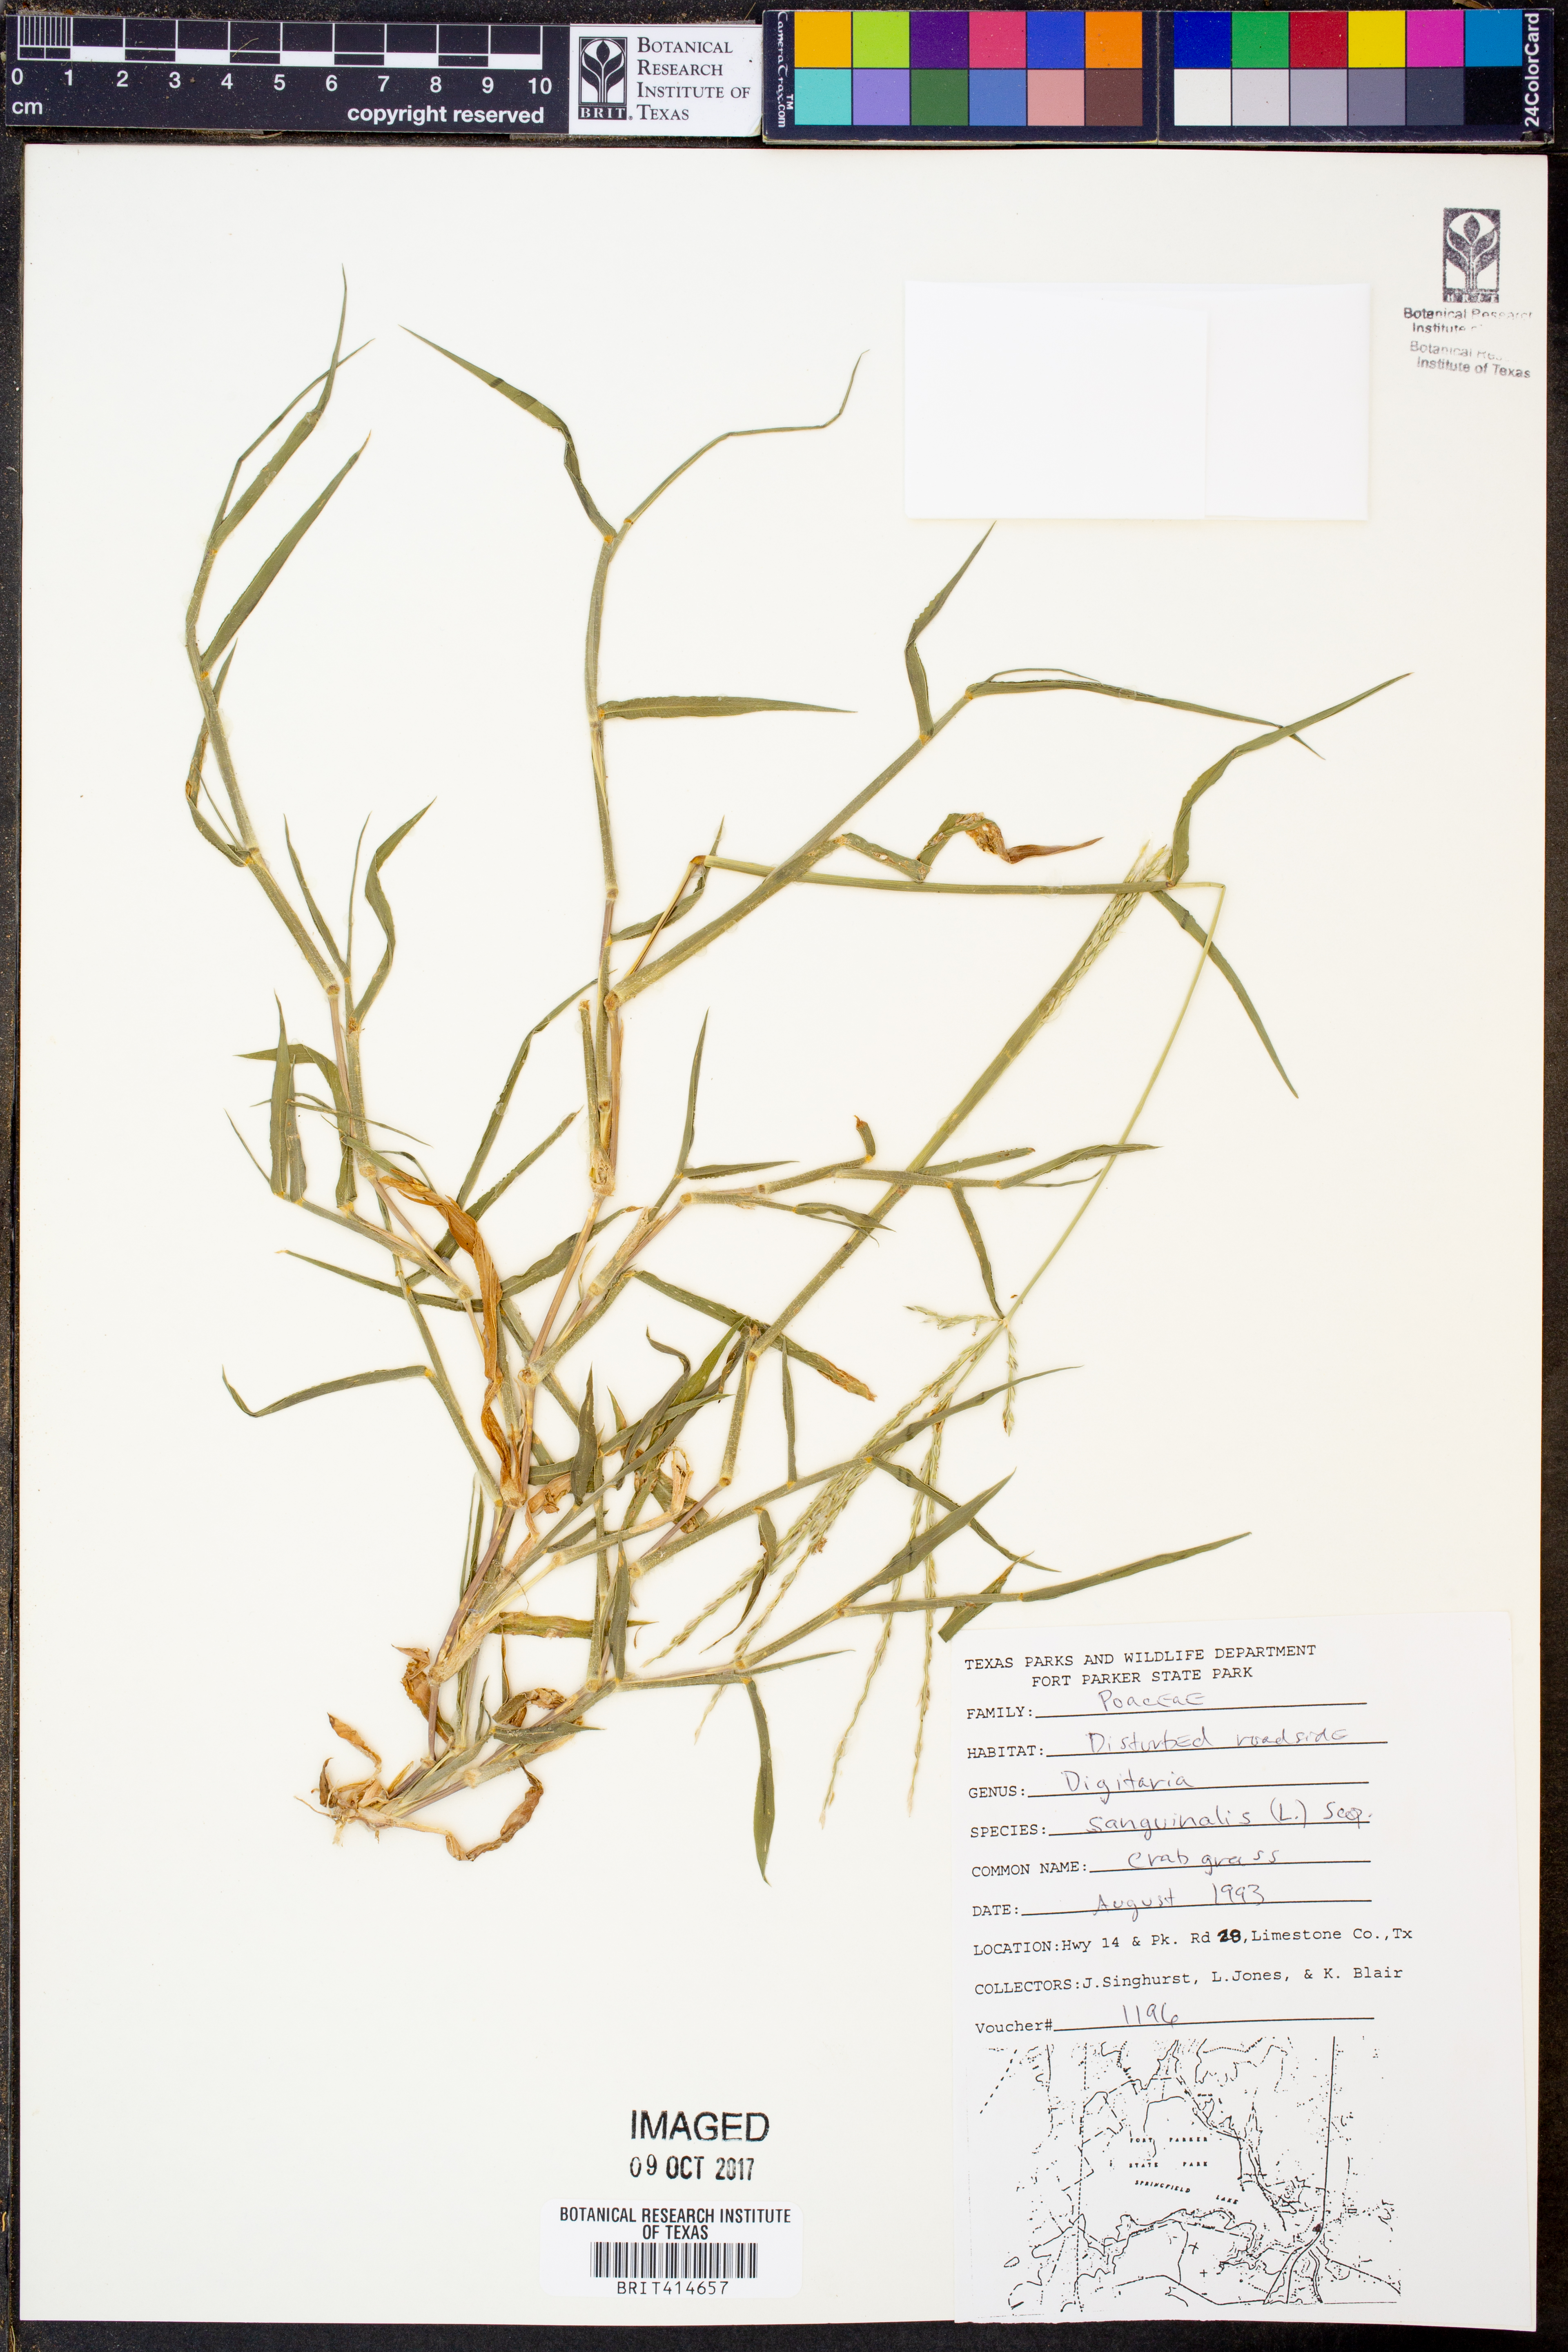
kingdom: Plantae
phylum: Tracheophyta
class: Liliopsida
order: Poales
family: Poaceae
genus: Digitaria
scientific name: Digitaria sanguinalis
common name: Hairy crabgrass
